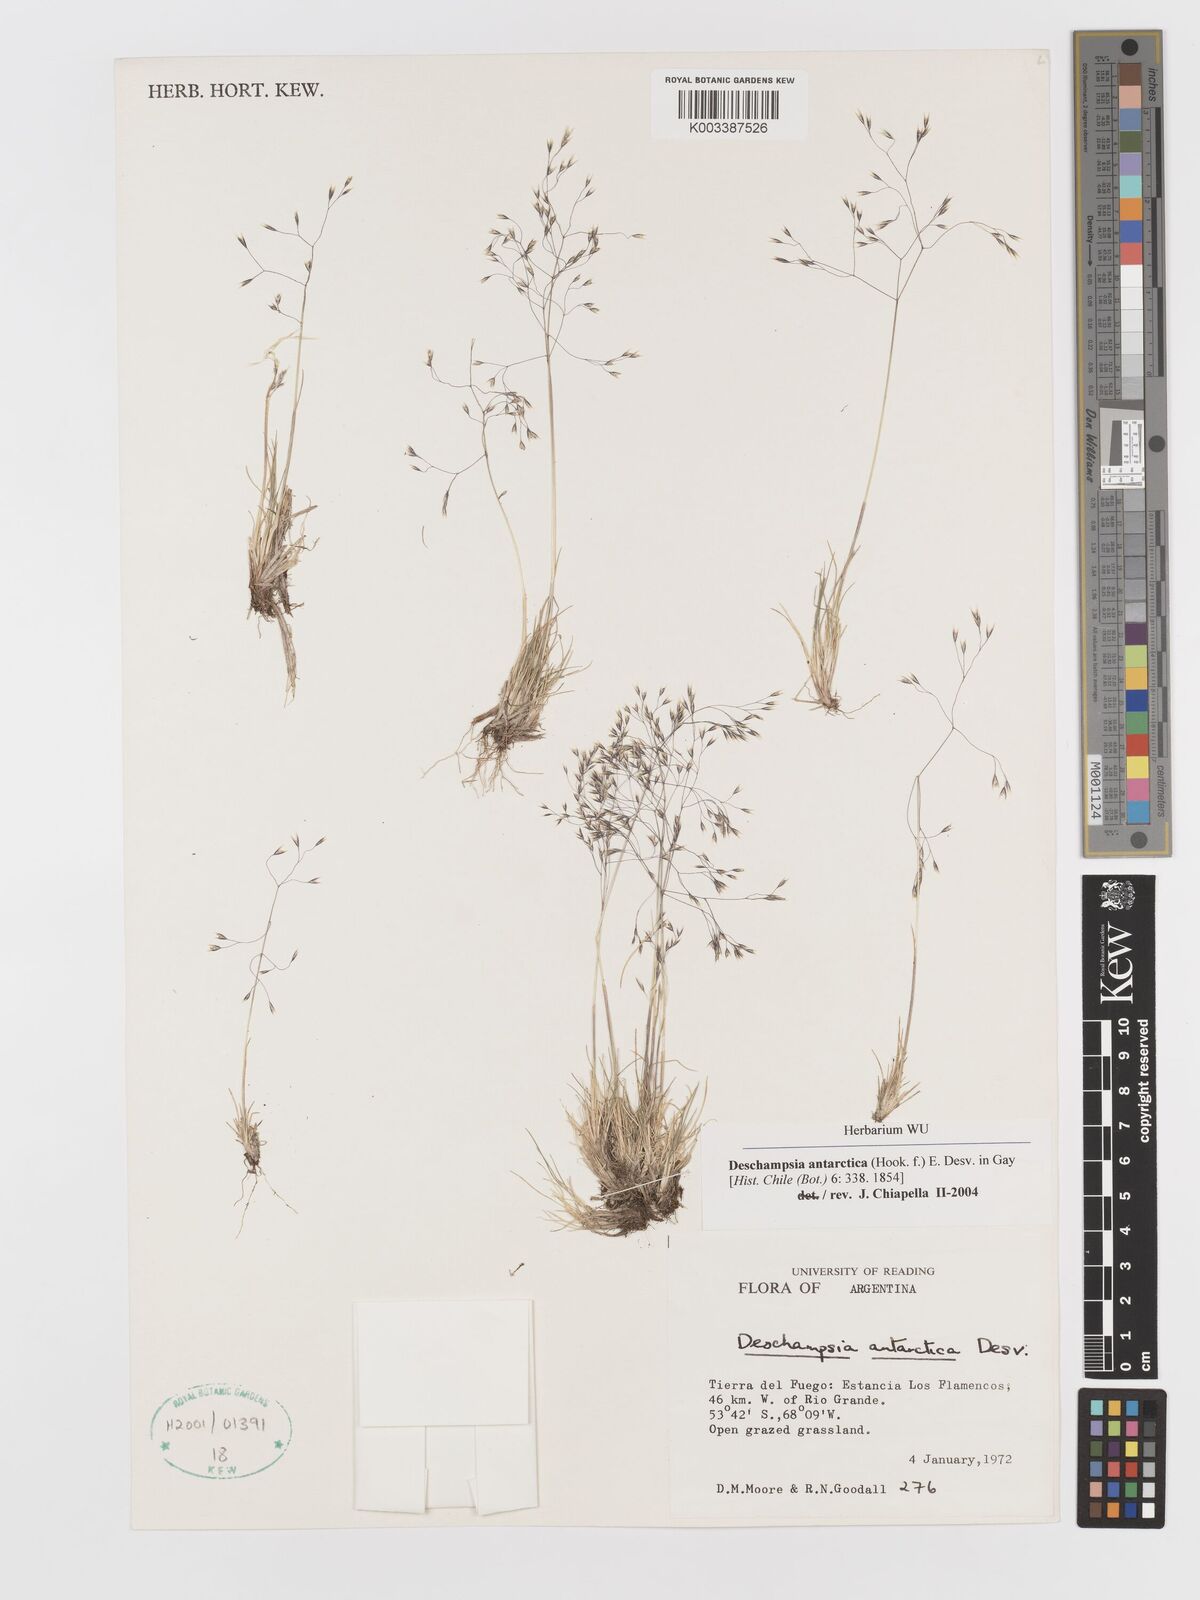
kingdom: Plantae
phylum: Tracheophyta
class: Liliopsida
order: Poales
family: Poaceae
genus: Deschampsia
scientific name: Deschampsia antarctica
